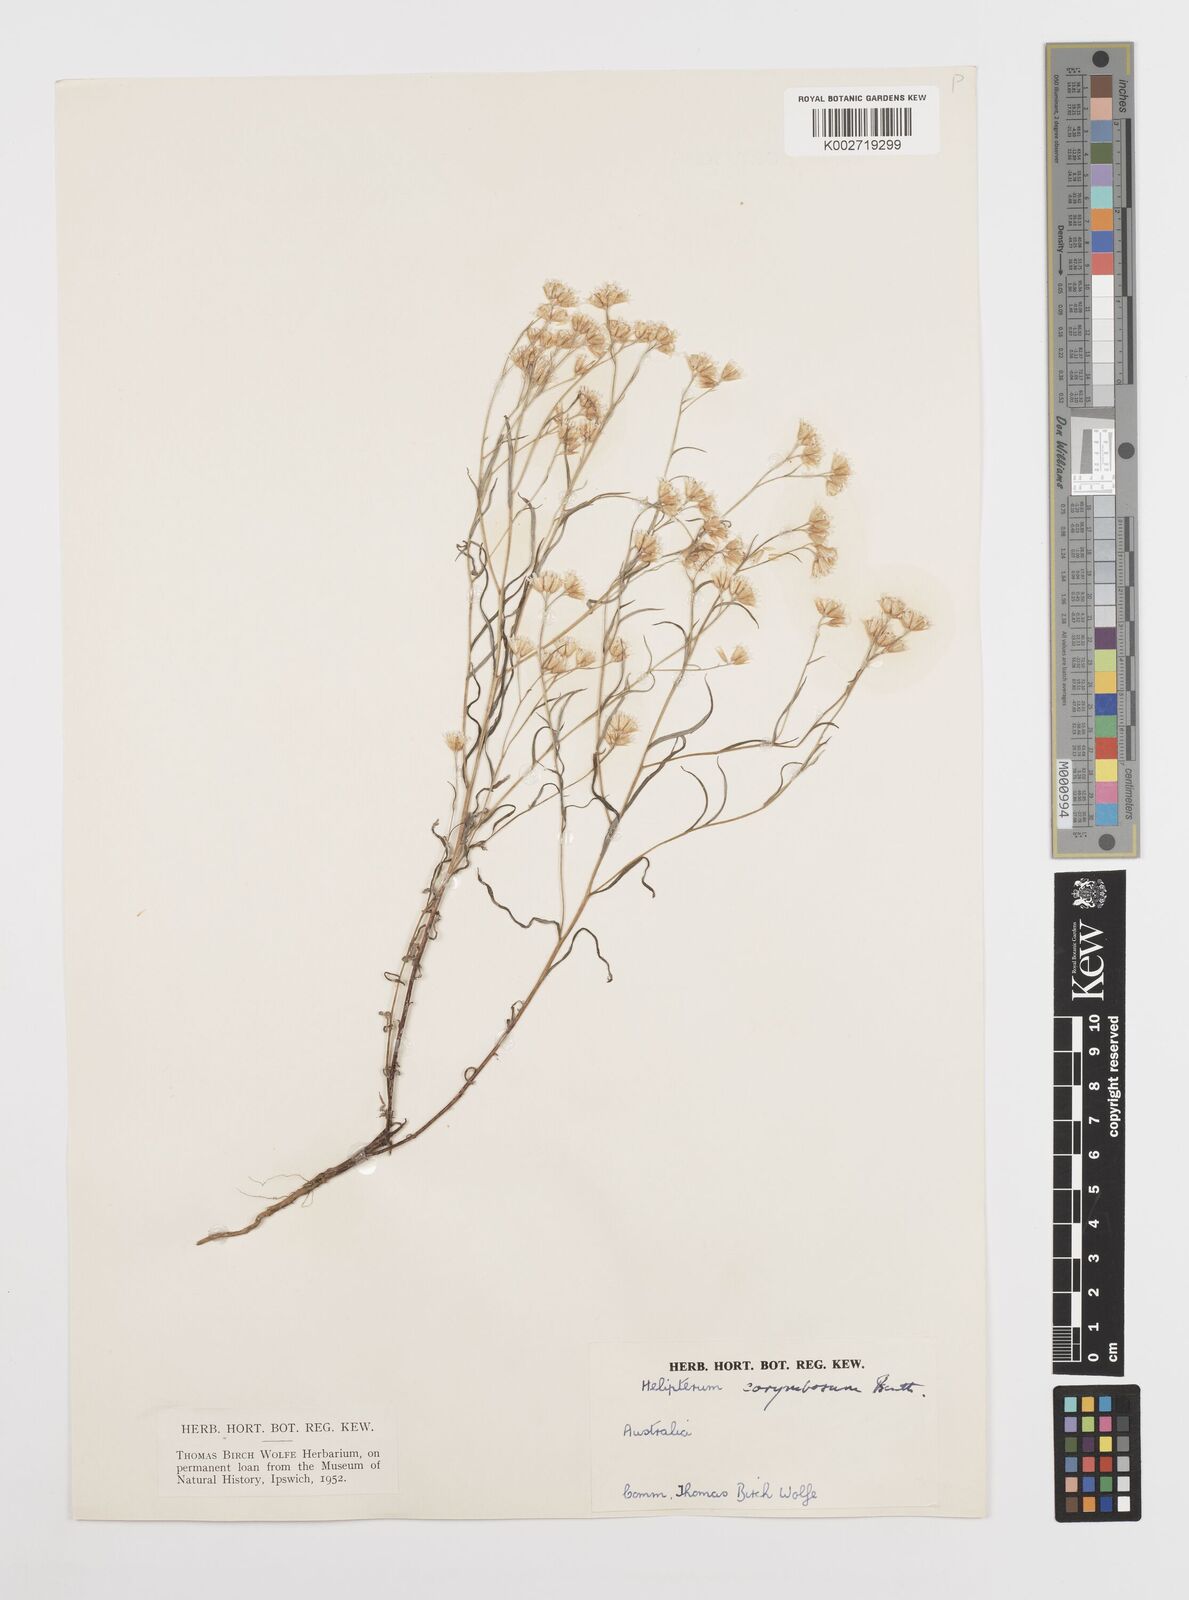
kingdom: Plantae
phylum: Tracheophyta
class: Magnoliopsida
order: Asterales
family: Asteraceae
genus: Rhodanthe
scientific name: Rhodanthe corymbosa
